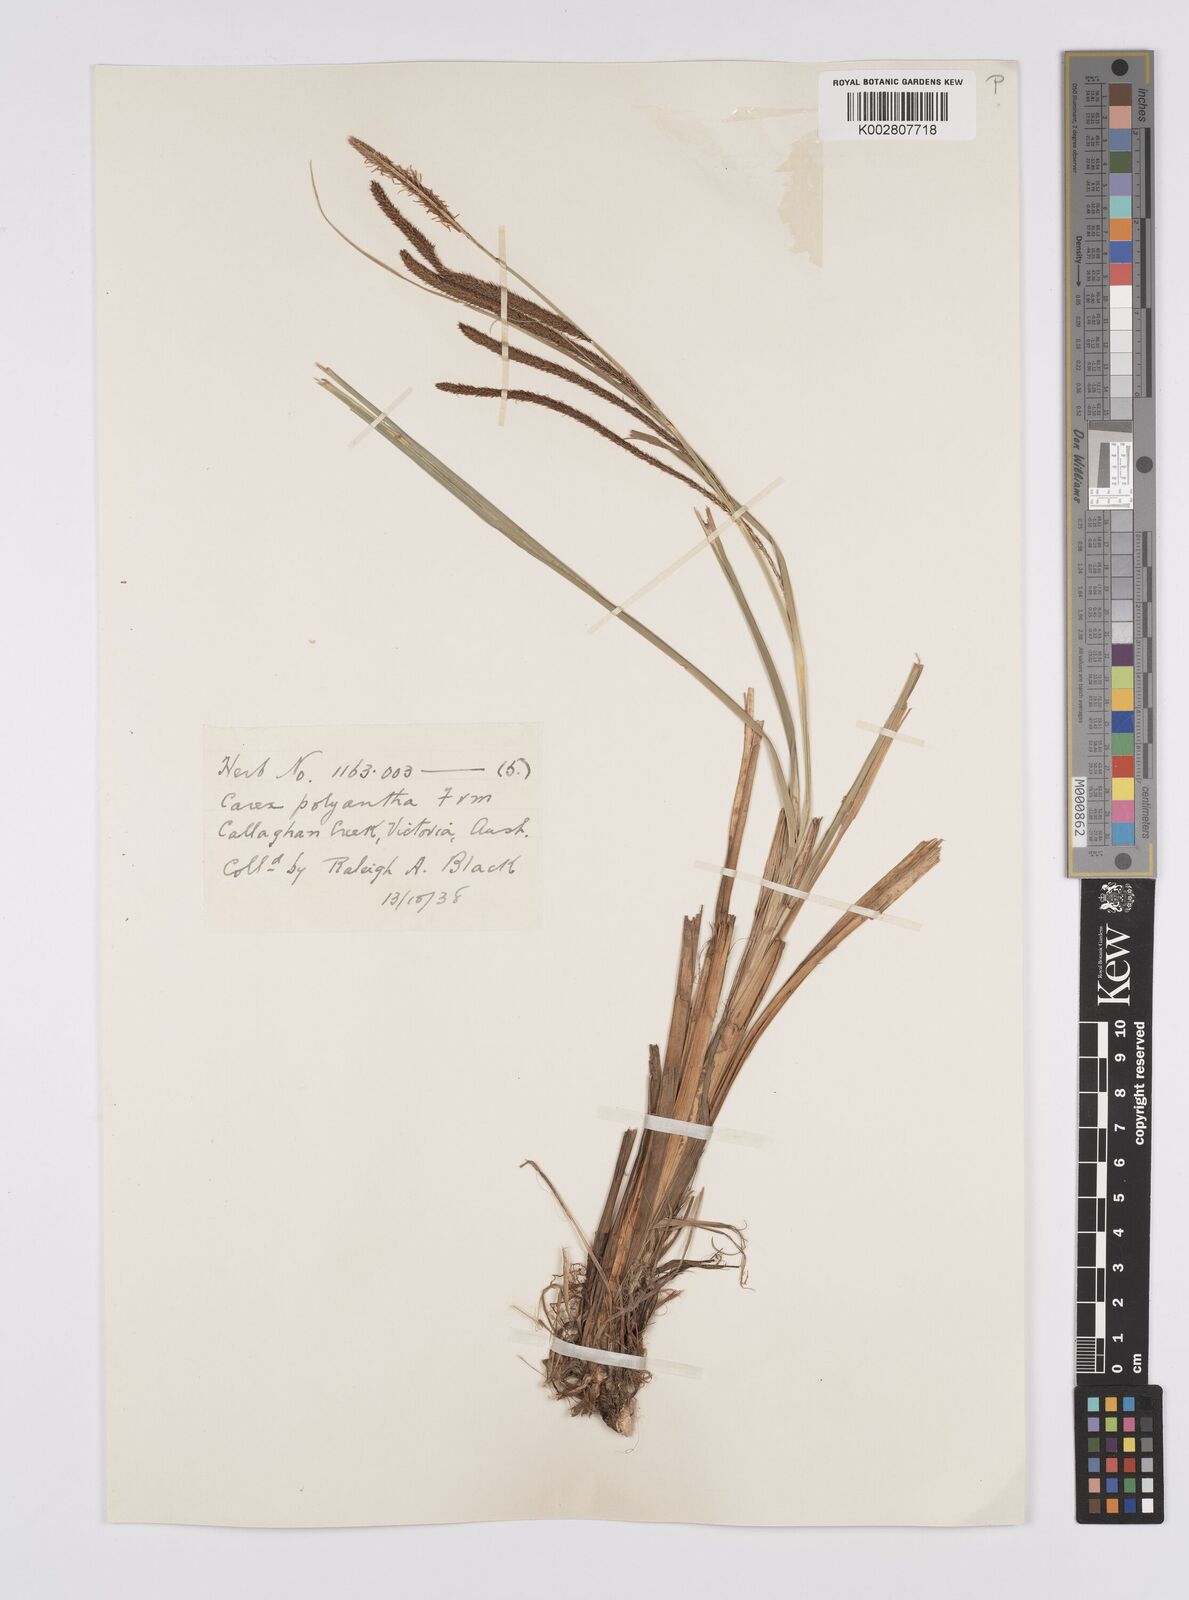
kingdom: Plantae
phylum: Tracheophyta
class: Liliopsida
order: Poales
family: Cyperaceae
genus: Carex
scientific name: Carex polyantha
